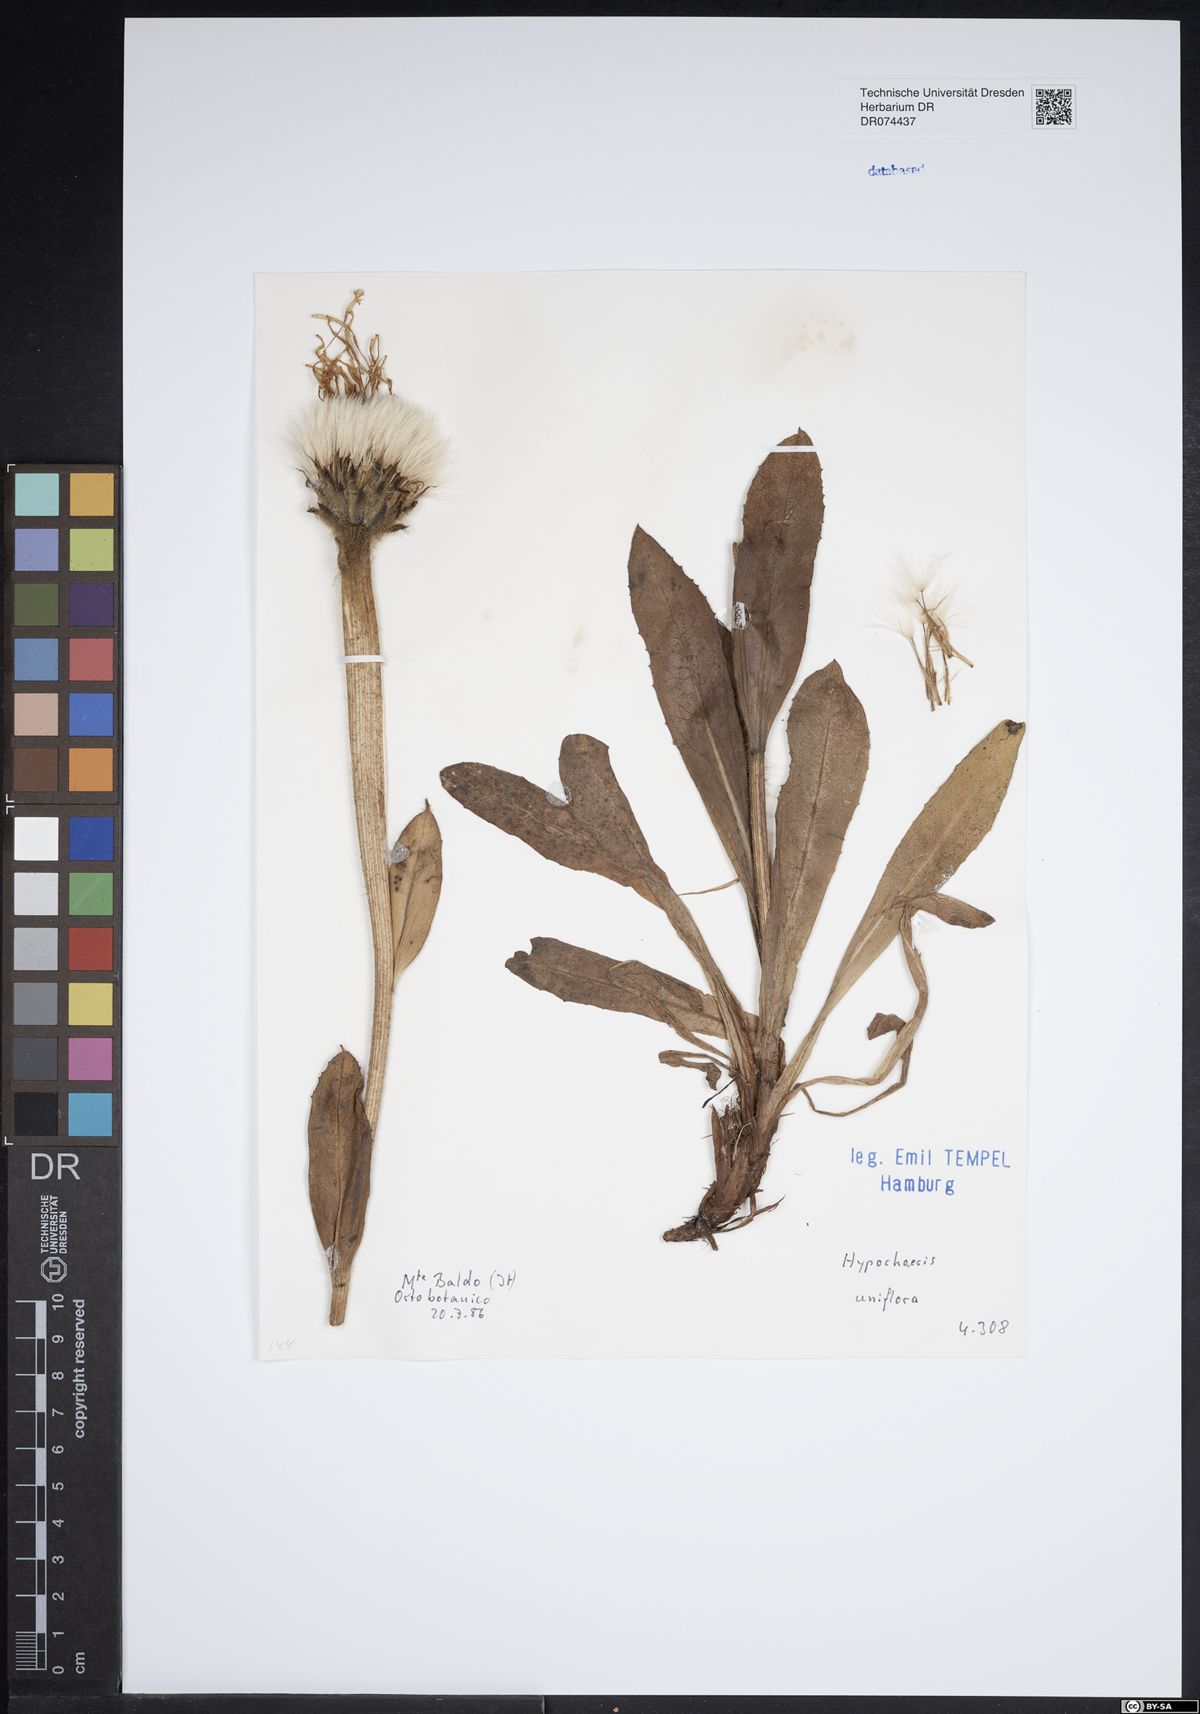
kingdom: Plantae
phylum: Tracheophyta
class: Magnoliopsida
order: Asterales
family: Asteraceae
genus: Trommsdorffia
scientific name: Trommsdorffia uniflora
